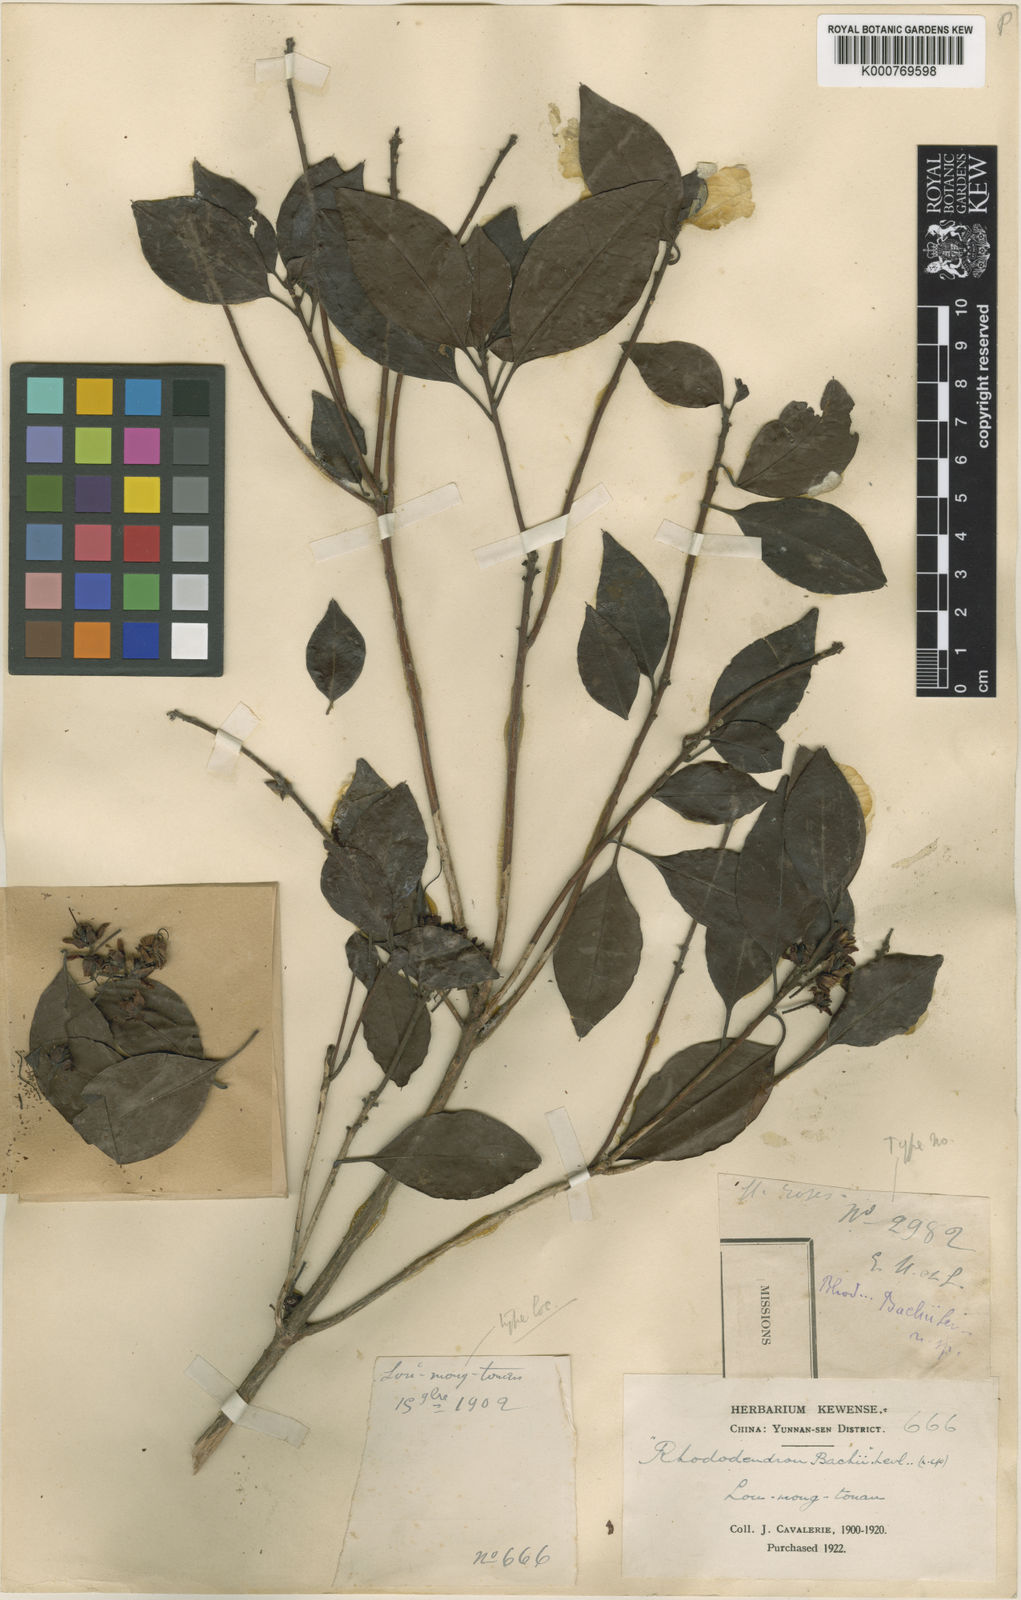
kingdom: Plantae
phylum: Tracheophyta
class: Magnoliopsida
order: Ericales
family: Ericaceae
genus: Rhododendron
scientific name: Rhododendron
